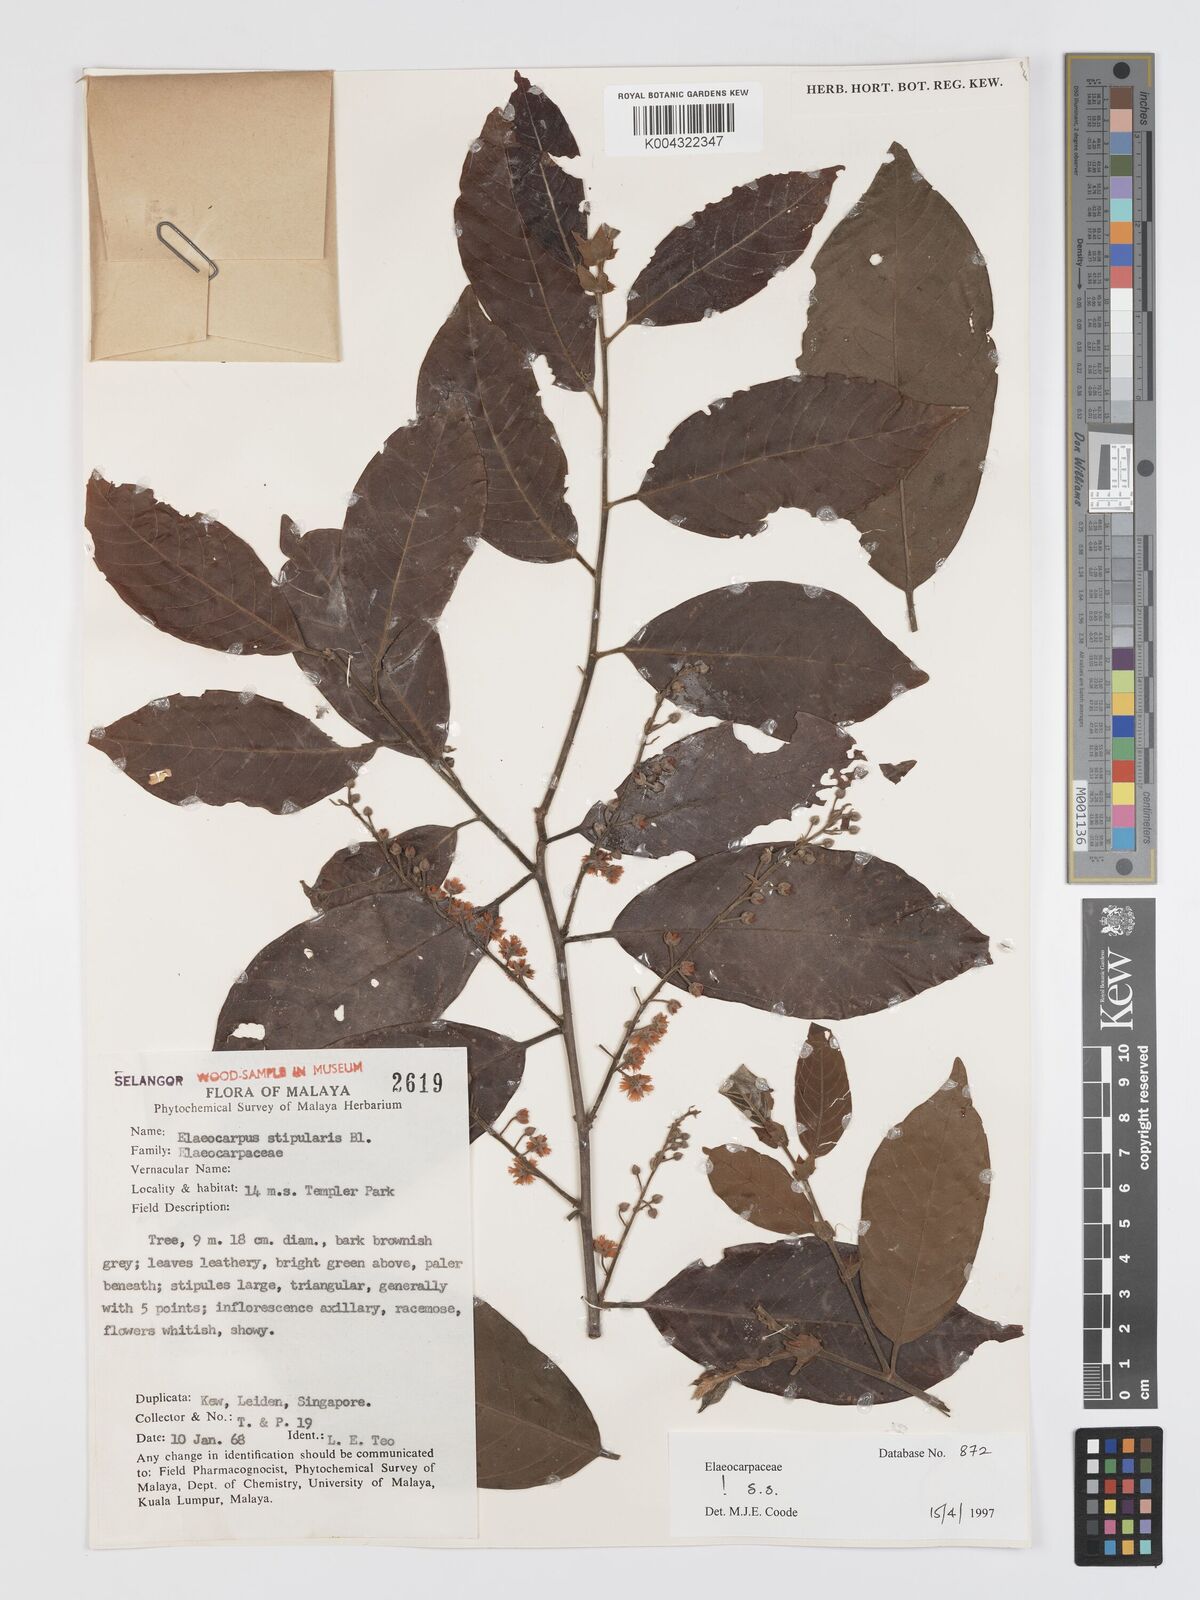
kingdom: Plantae
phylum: Tracheophyta
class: Magnoliopsida
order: Oxalidales
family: Elaeocarpaceae
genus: Elaeocarpus
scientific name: Elaeocarpus stipularis
